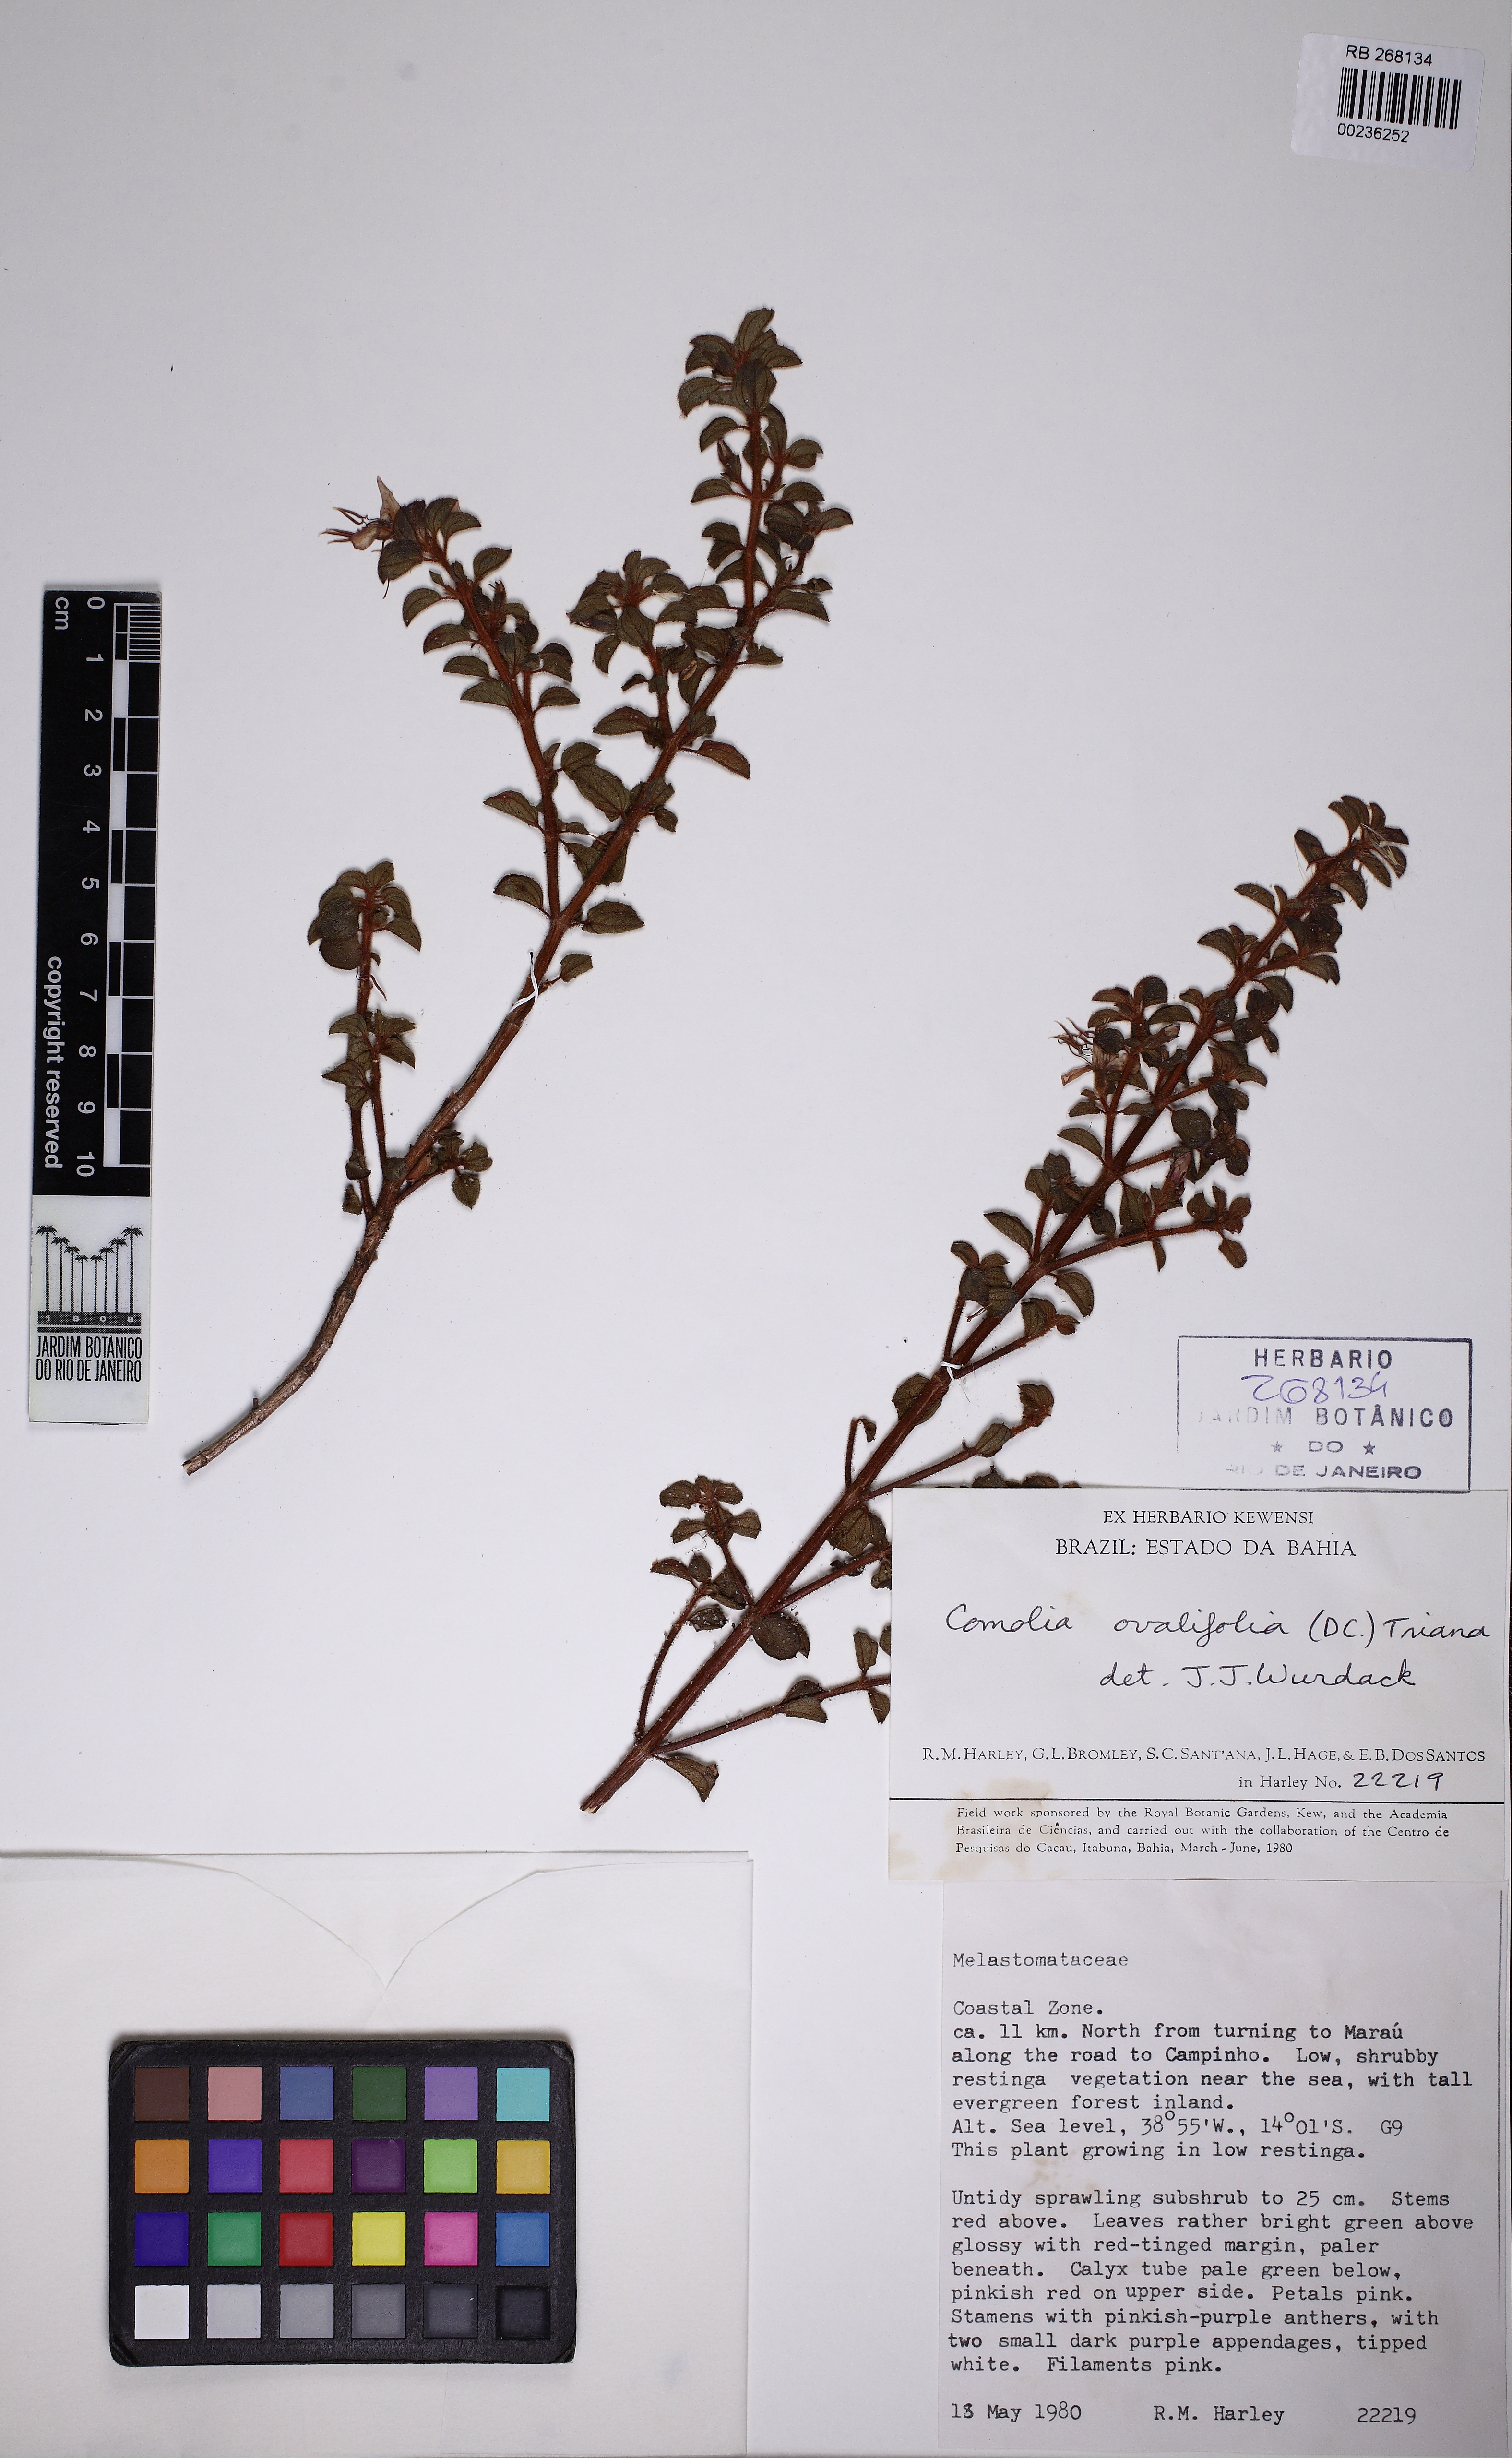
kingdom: Plantae
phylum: Tracheophyta
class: Magnoliopsida
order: Myrtales
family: Melastomataceae
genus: Comolia
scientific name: Comolia ovalifolia
